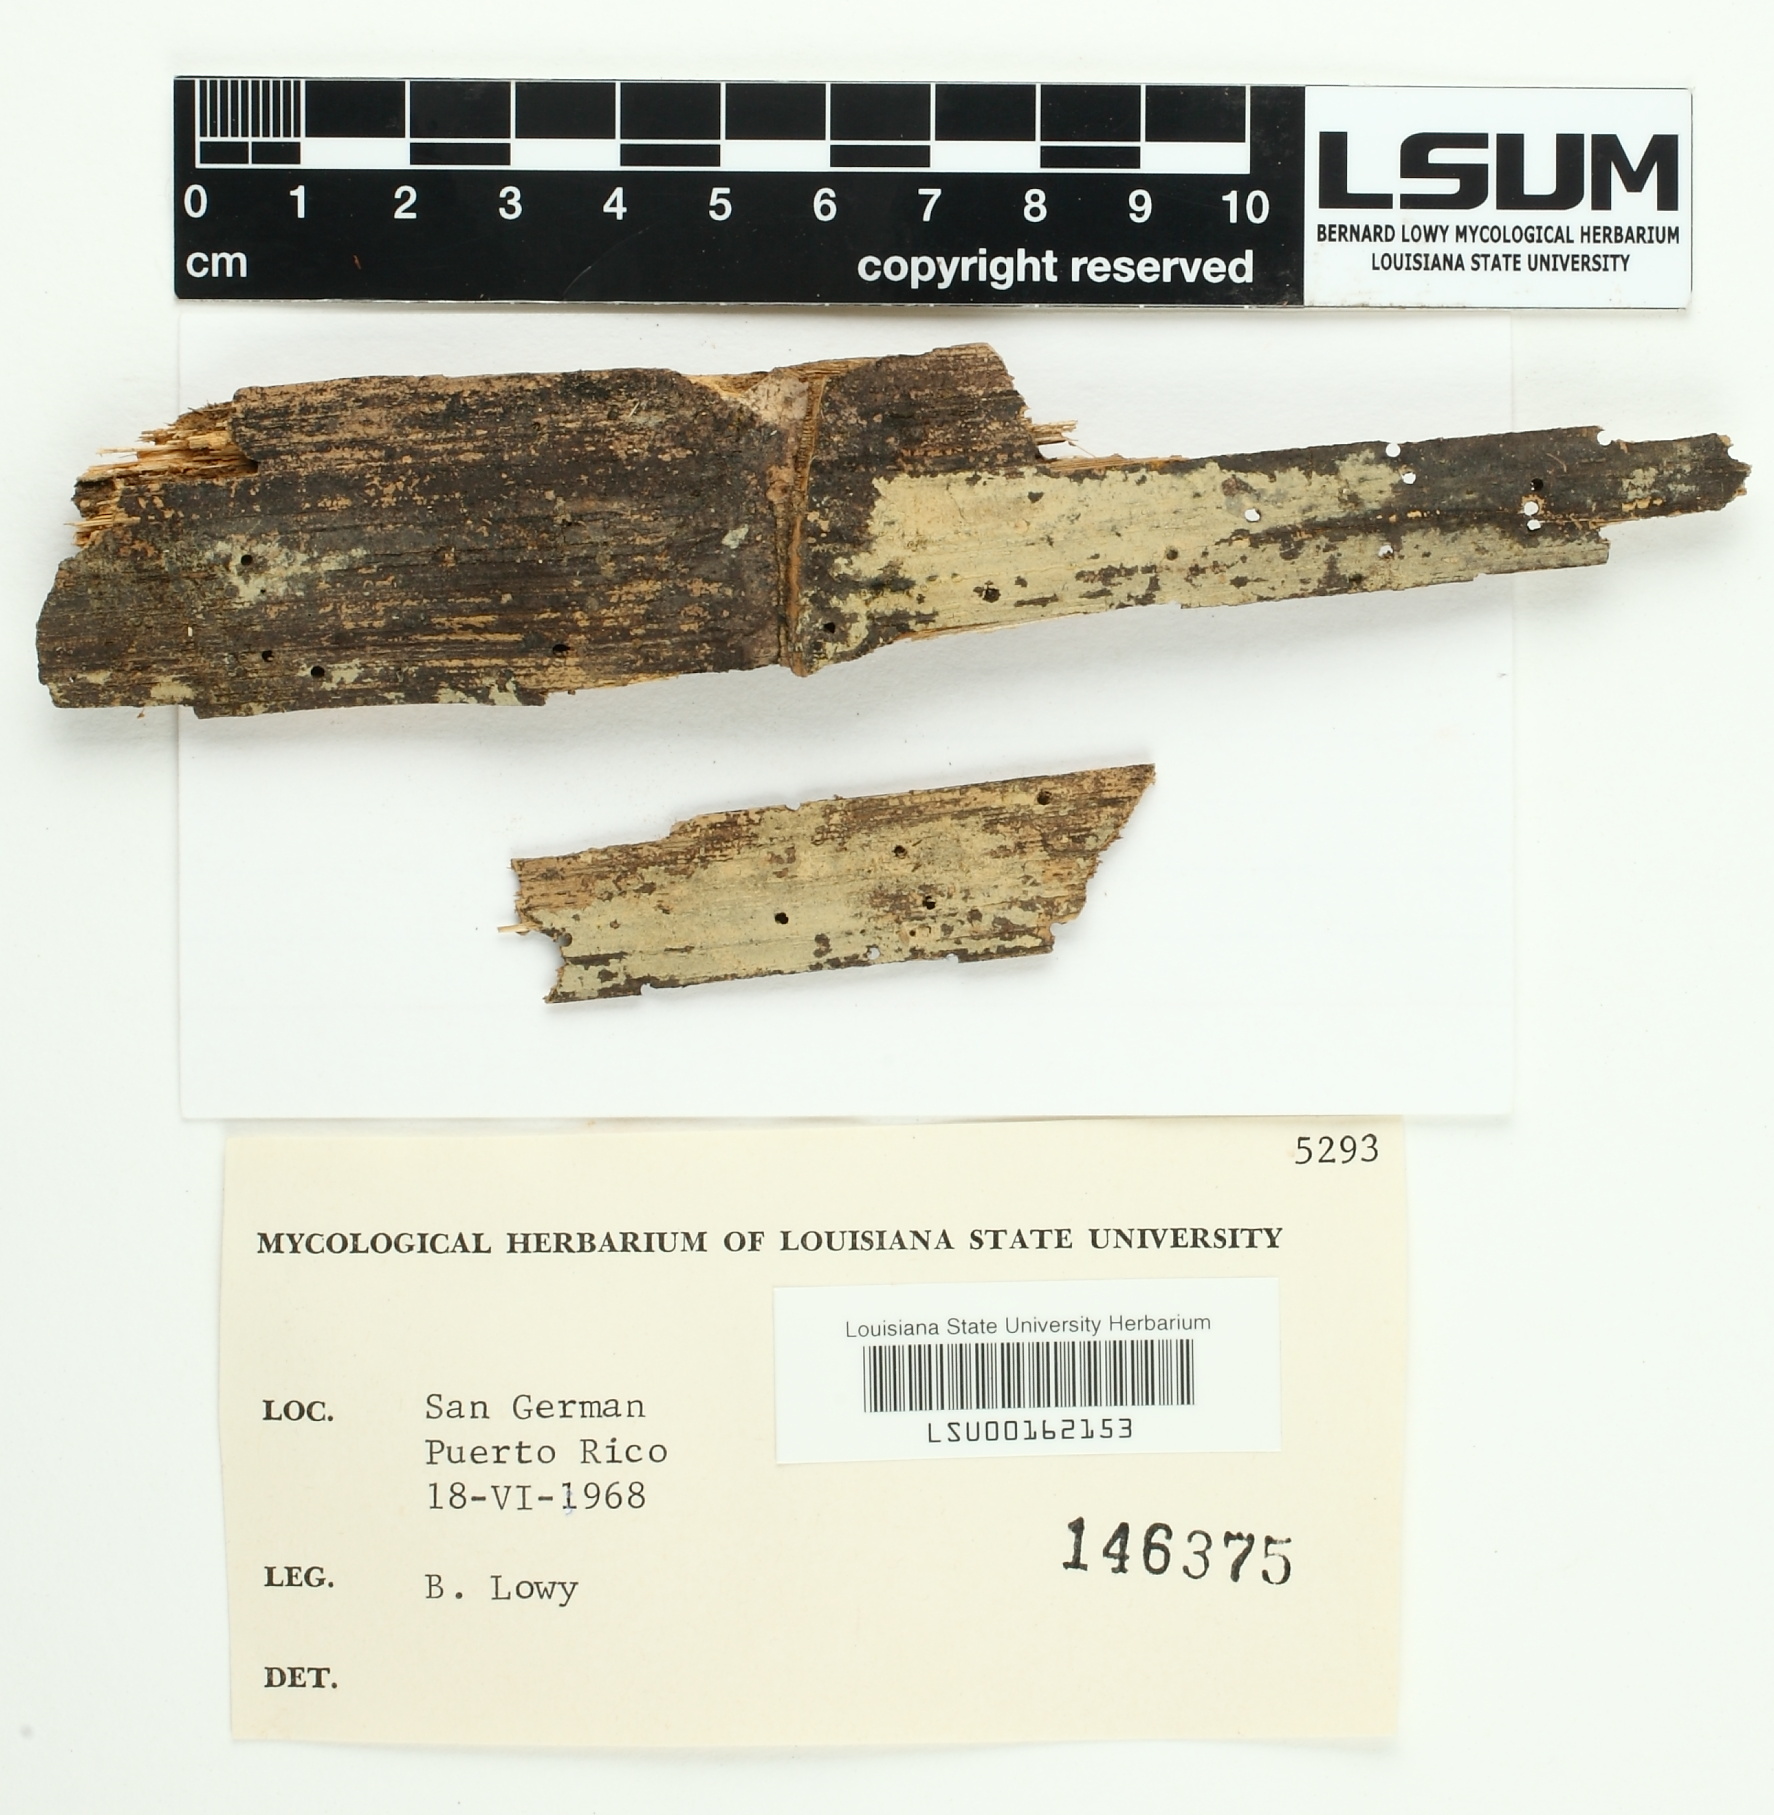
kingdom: Fungi
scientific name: Fungi
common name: Fungi
